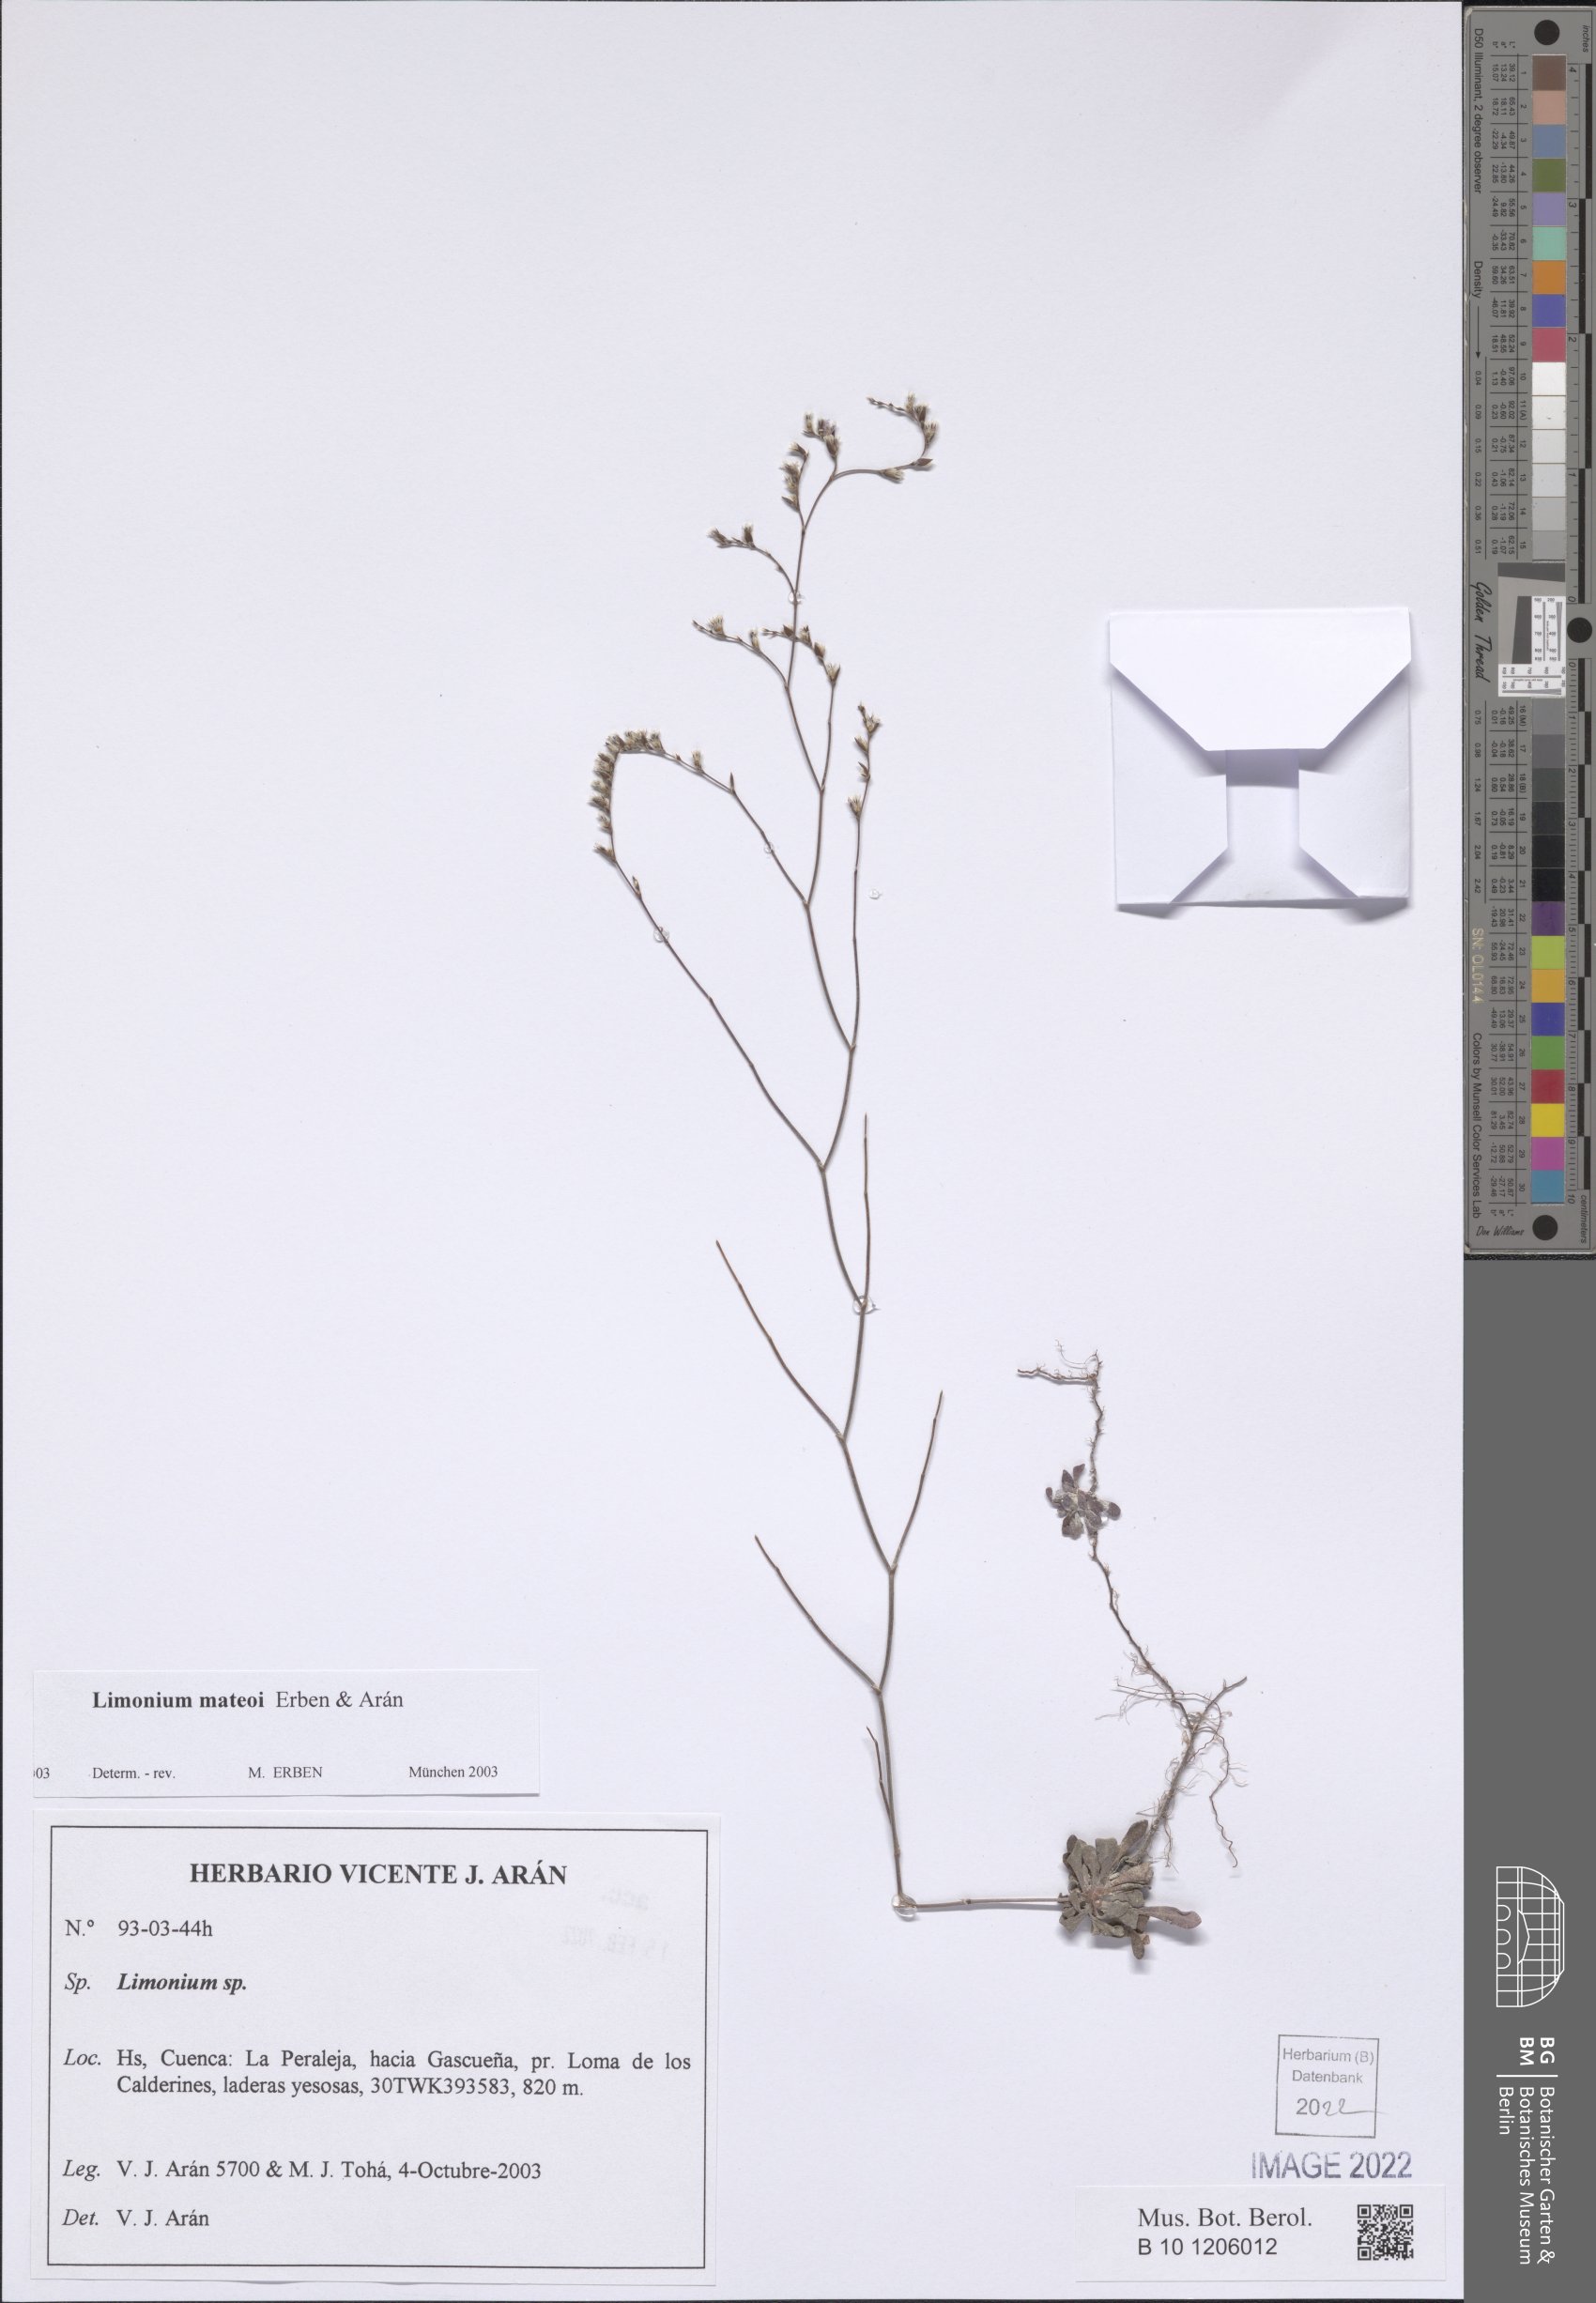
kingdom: Plantae
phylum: Tracheophyta
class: Magnoliopsida
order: Caryophyllales
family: Plumbaginaceae
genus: Limonium
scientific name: Limonium mateoi
